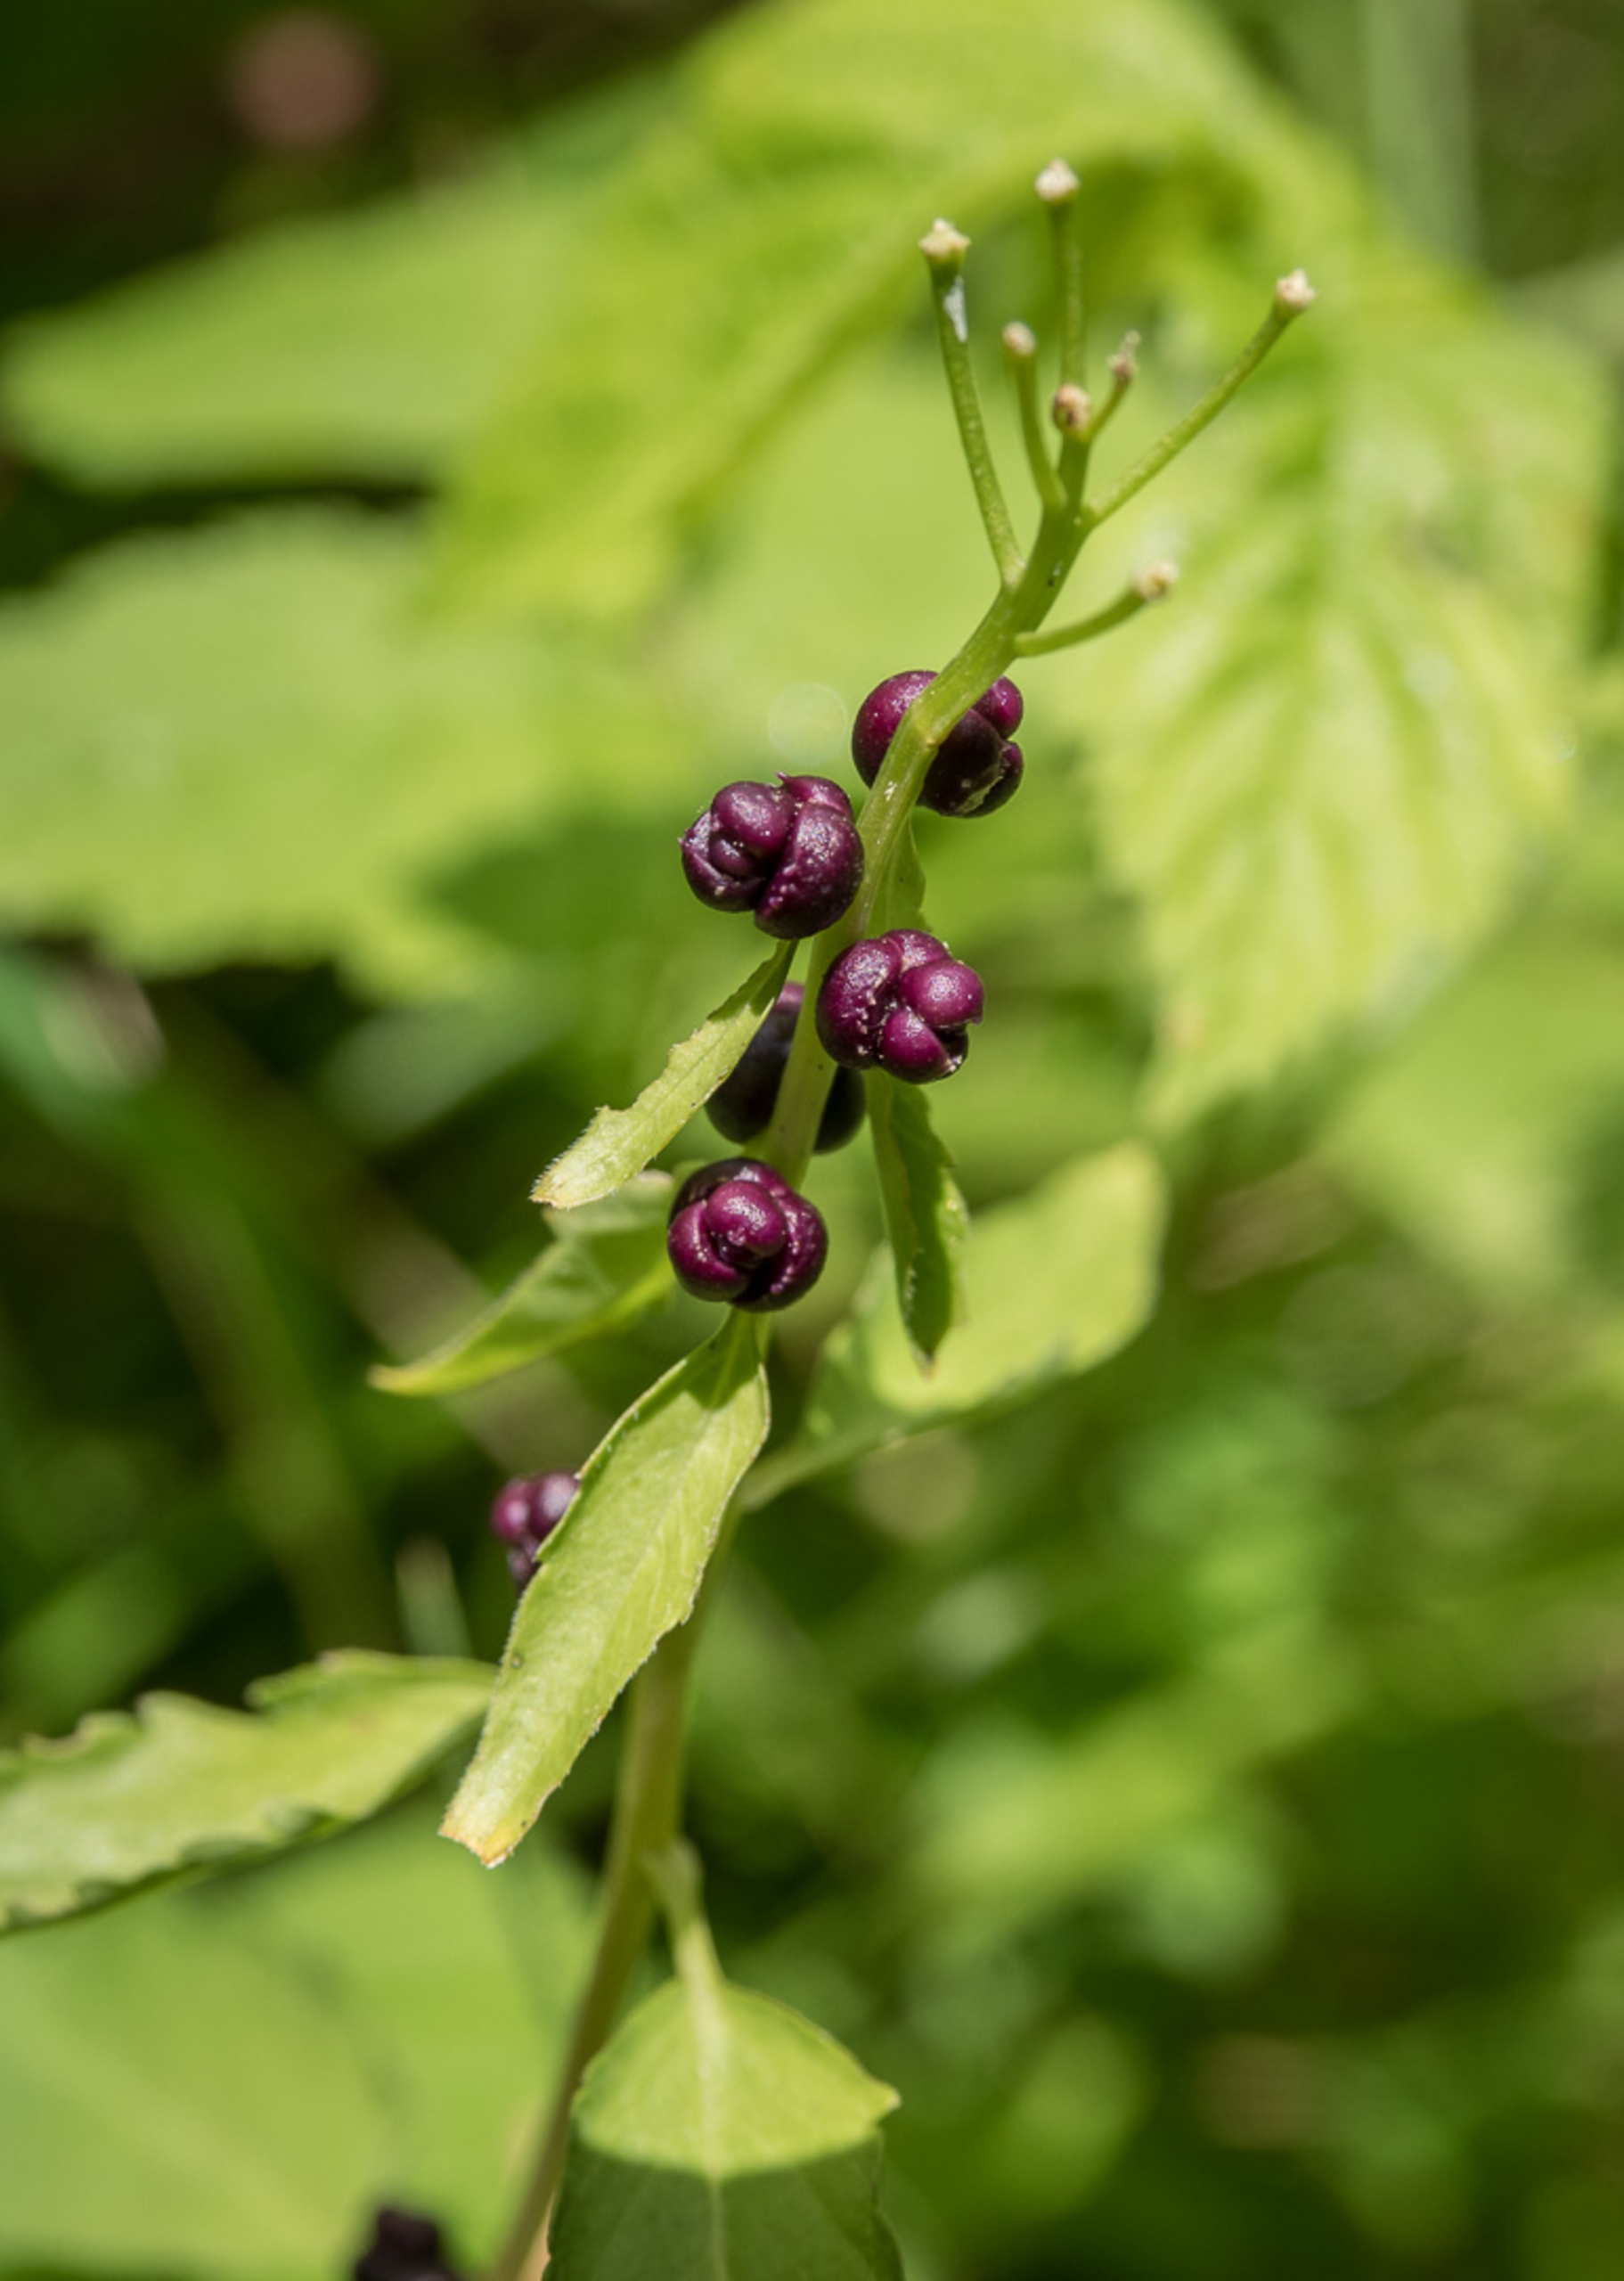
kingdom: Plantae
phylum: Tracheophyta
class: Magnoliopsida
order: Brassicales
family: Brassicaceae
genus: Cardamine
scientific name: Cardamine bulbifera
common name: Tandrod
